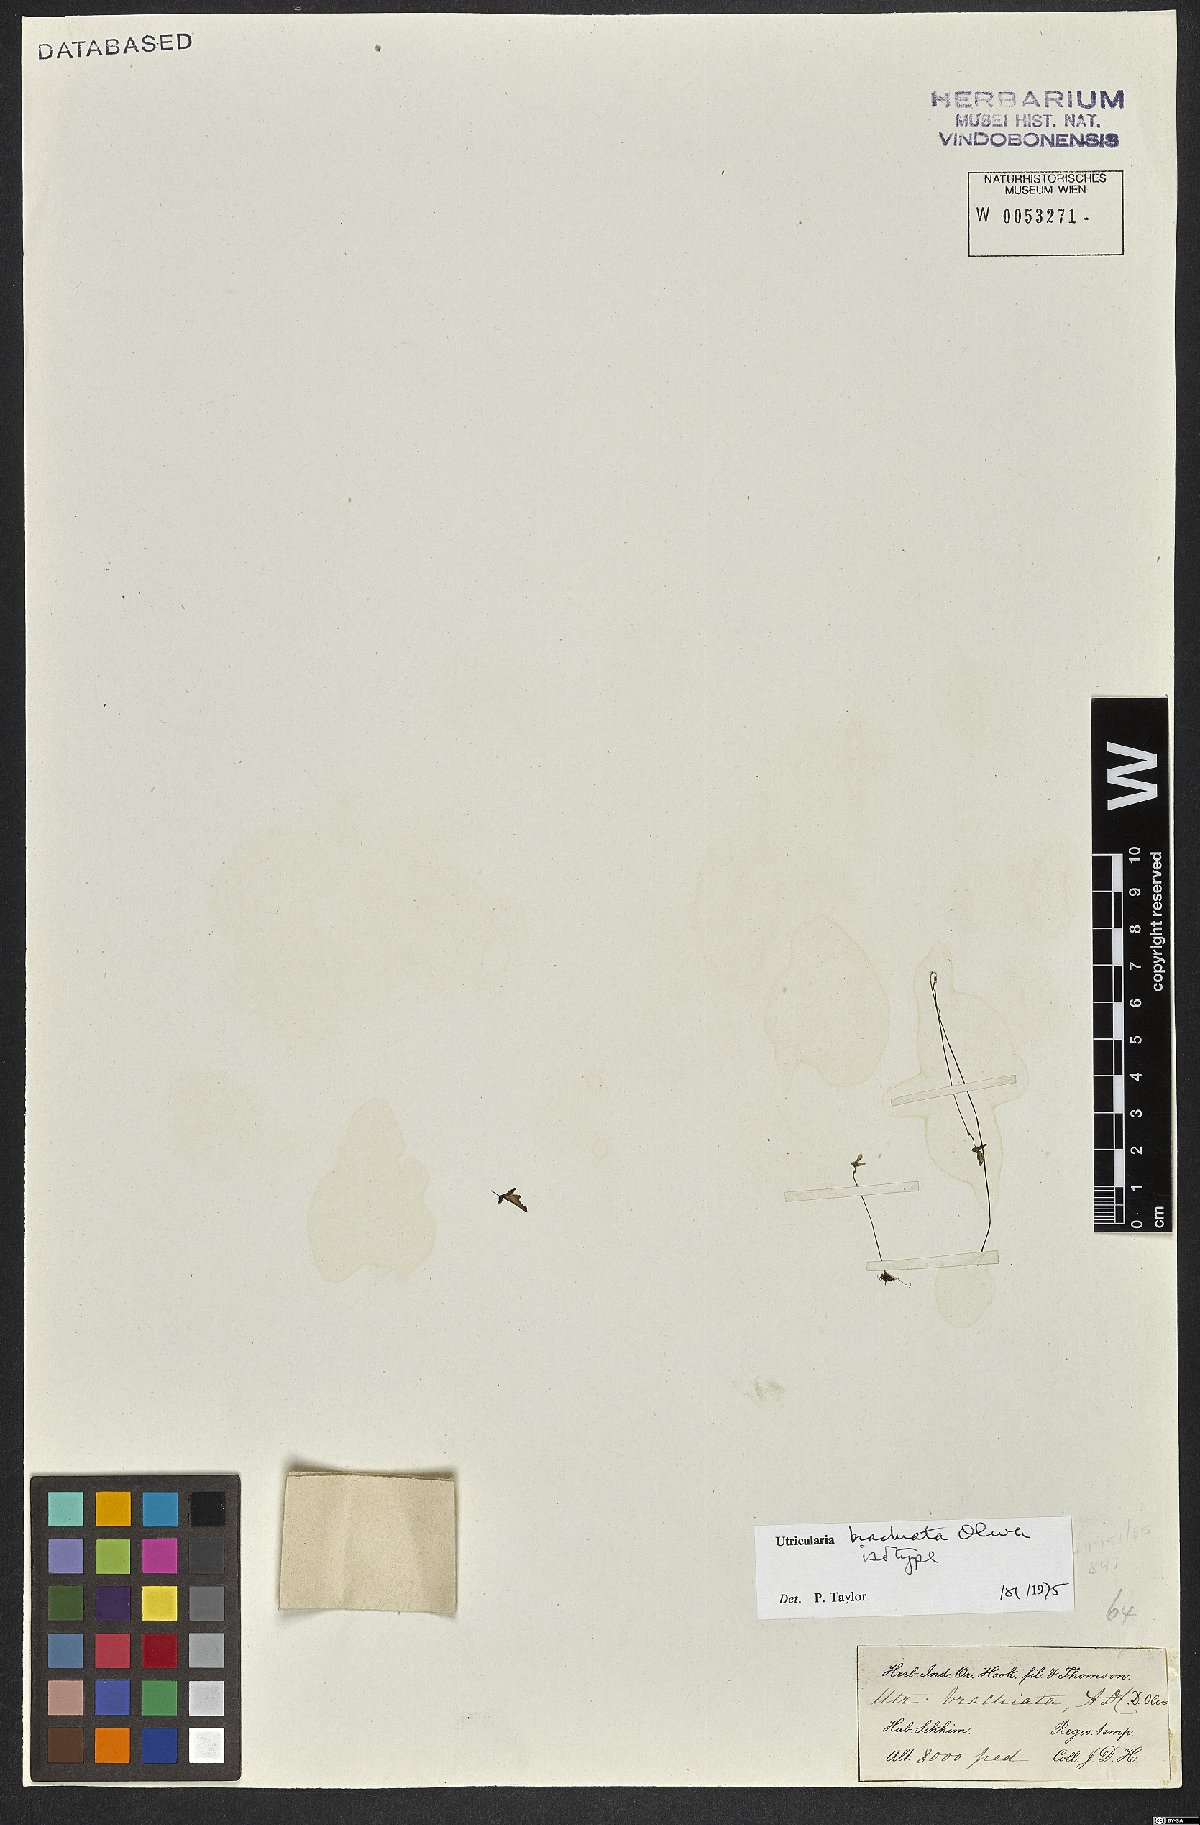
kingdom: Plantae
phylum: Tracheophyta
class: Magnoliopsida
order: Lamiales
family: Lentibulariaceae
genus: Utricularia
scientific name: Utricularia brachiata
